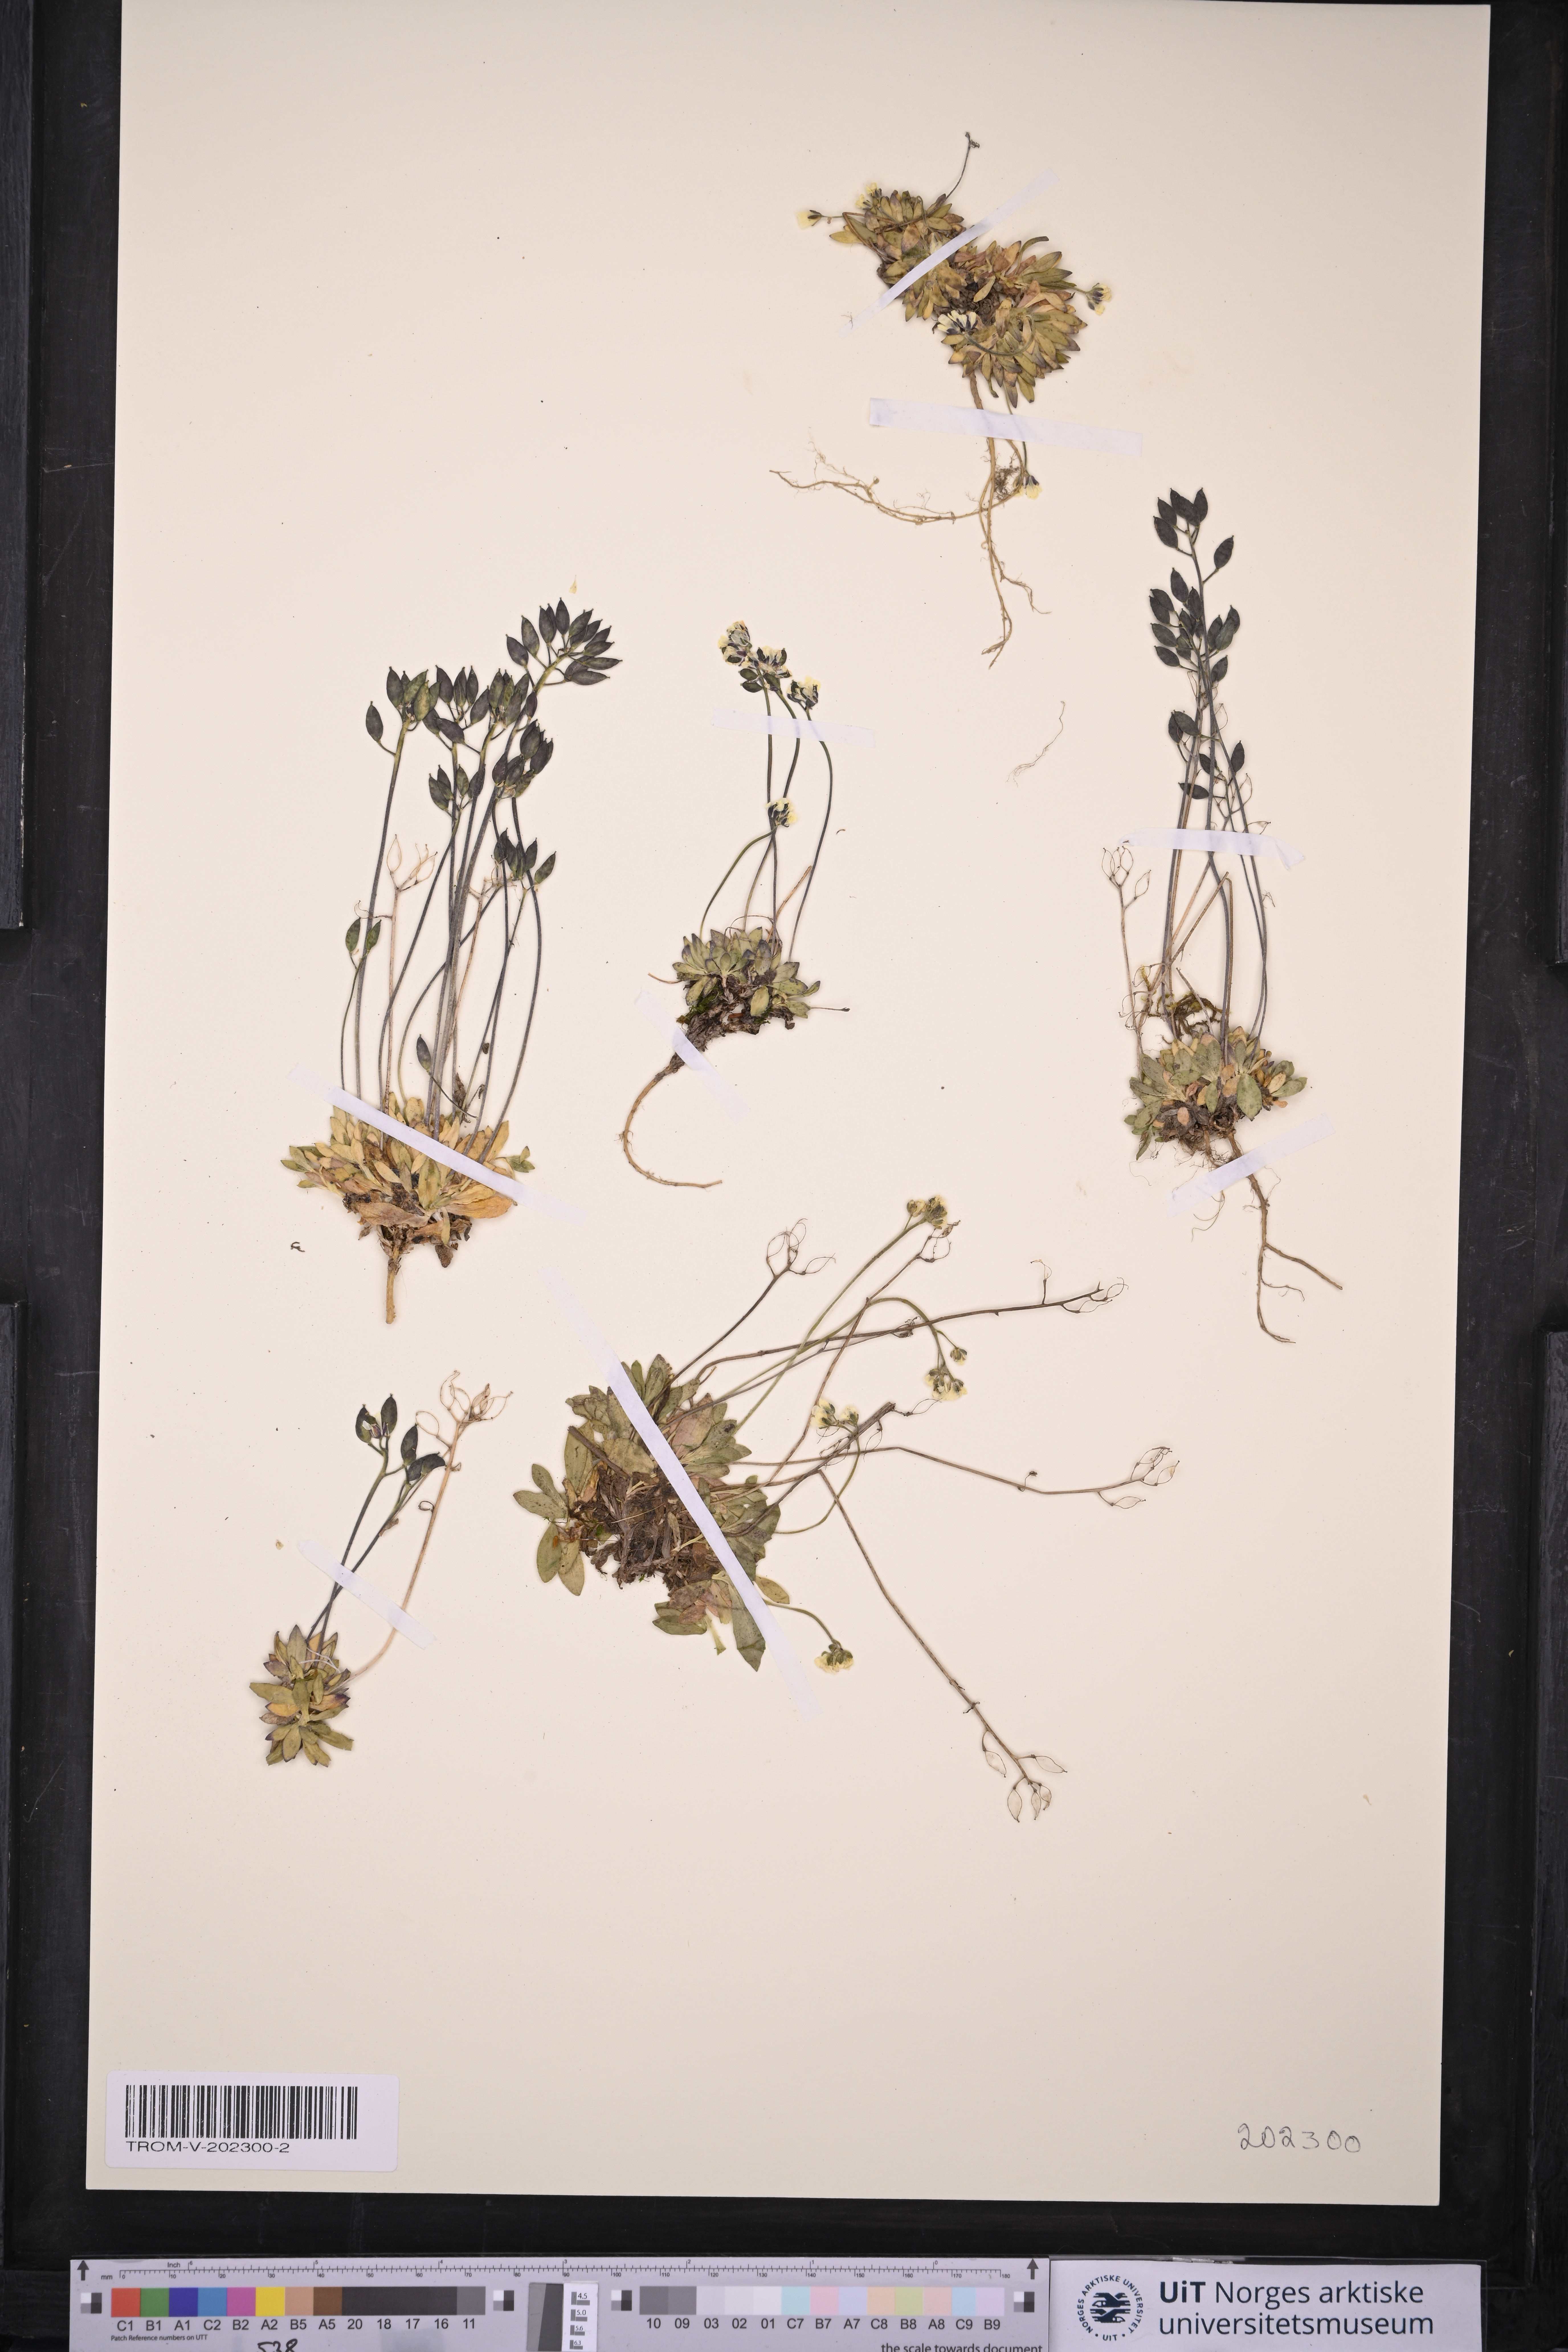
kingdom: Plantae
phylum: Tracheophyta
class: Magnoliopsida
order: Brassicales
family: Brassicaceae
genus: Draba
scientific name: Draba alpina
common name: Alpine draba
